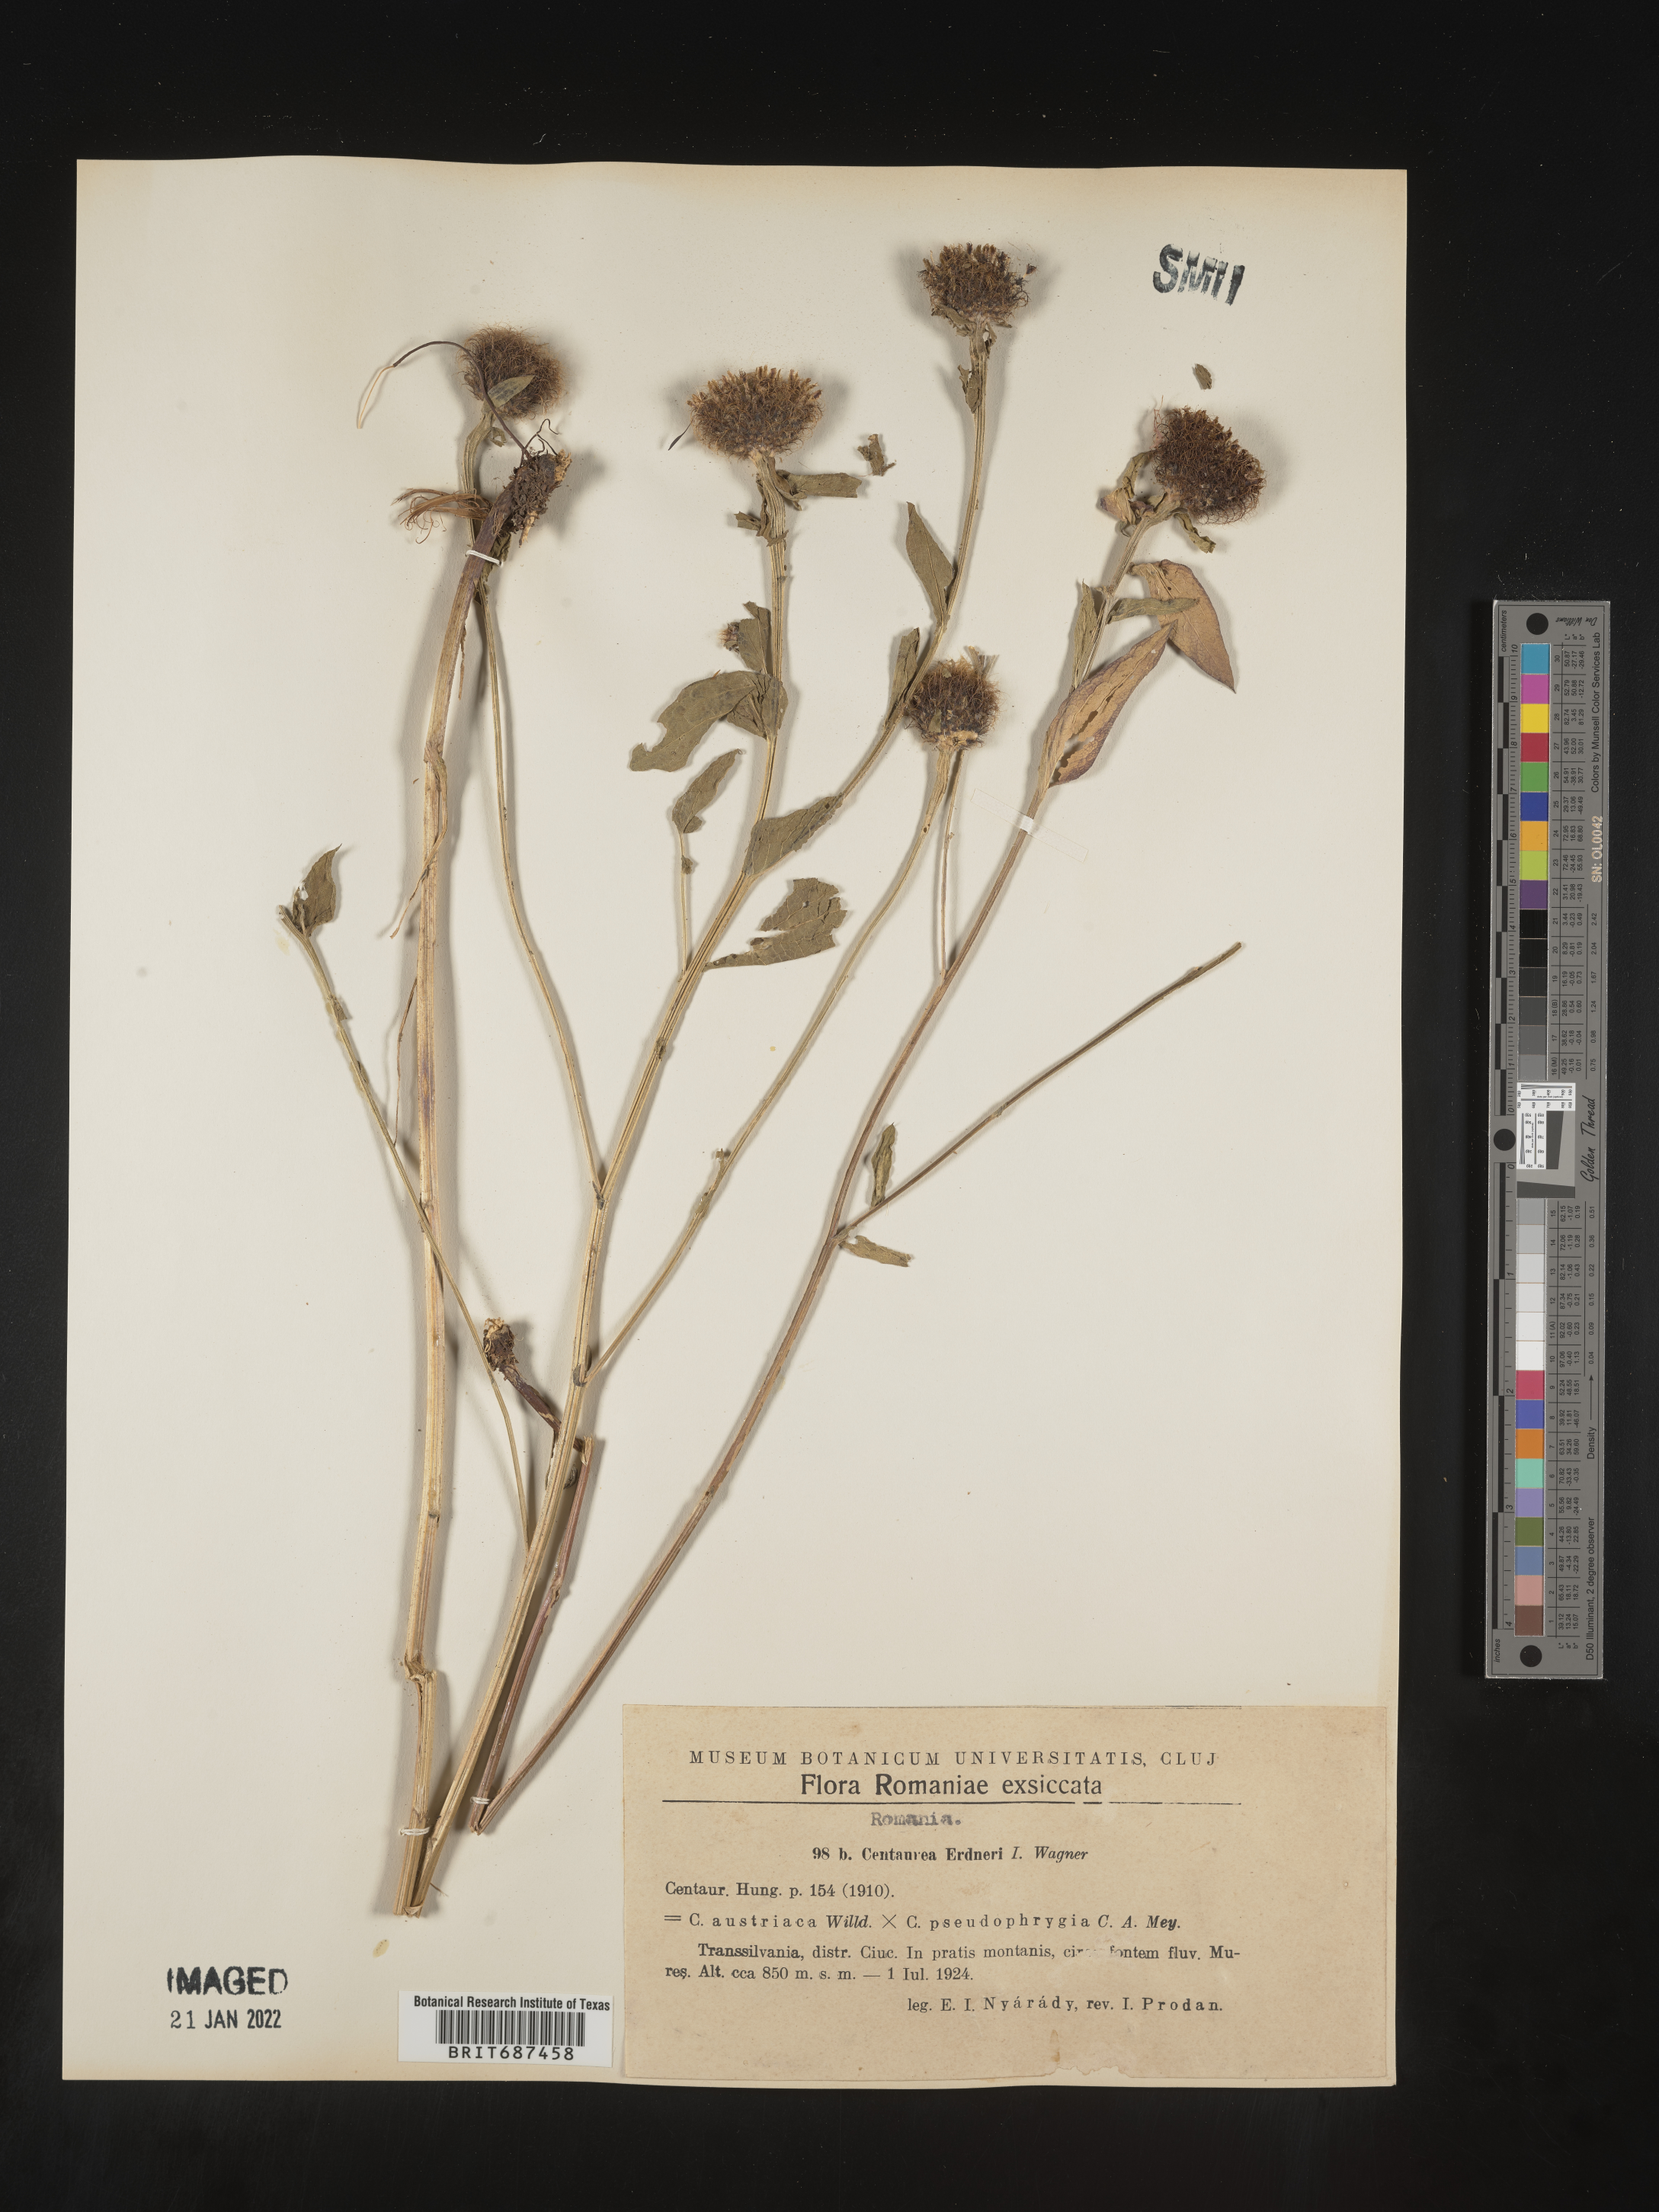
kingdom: Plantae
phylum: Tracheophyta
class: Magnoliopsida
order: Asterales
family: Asteraceae
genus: Centaurea
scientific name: Centaurea
